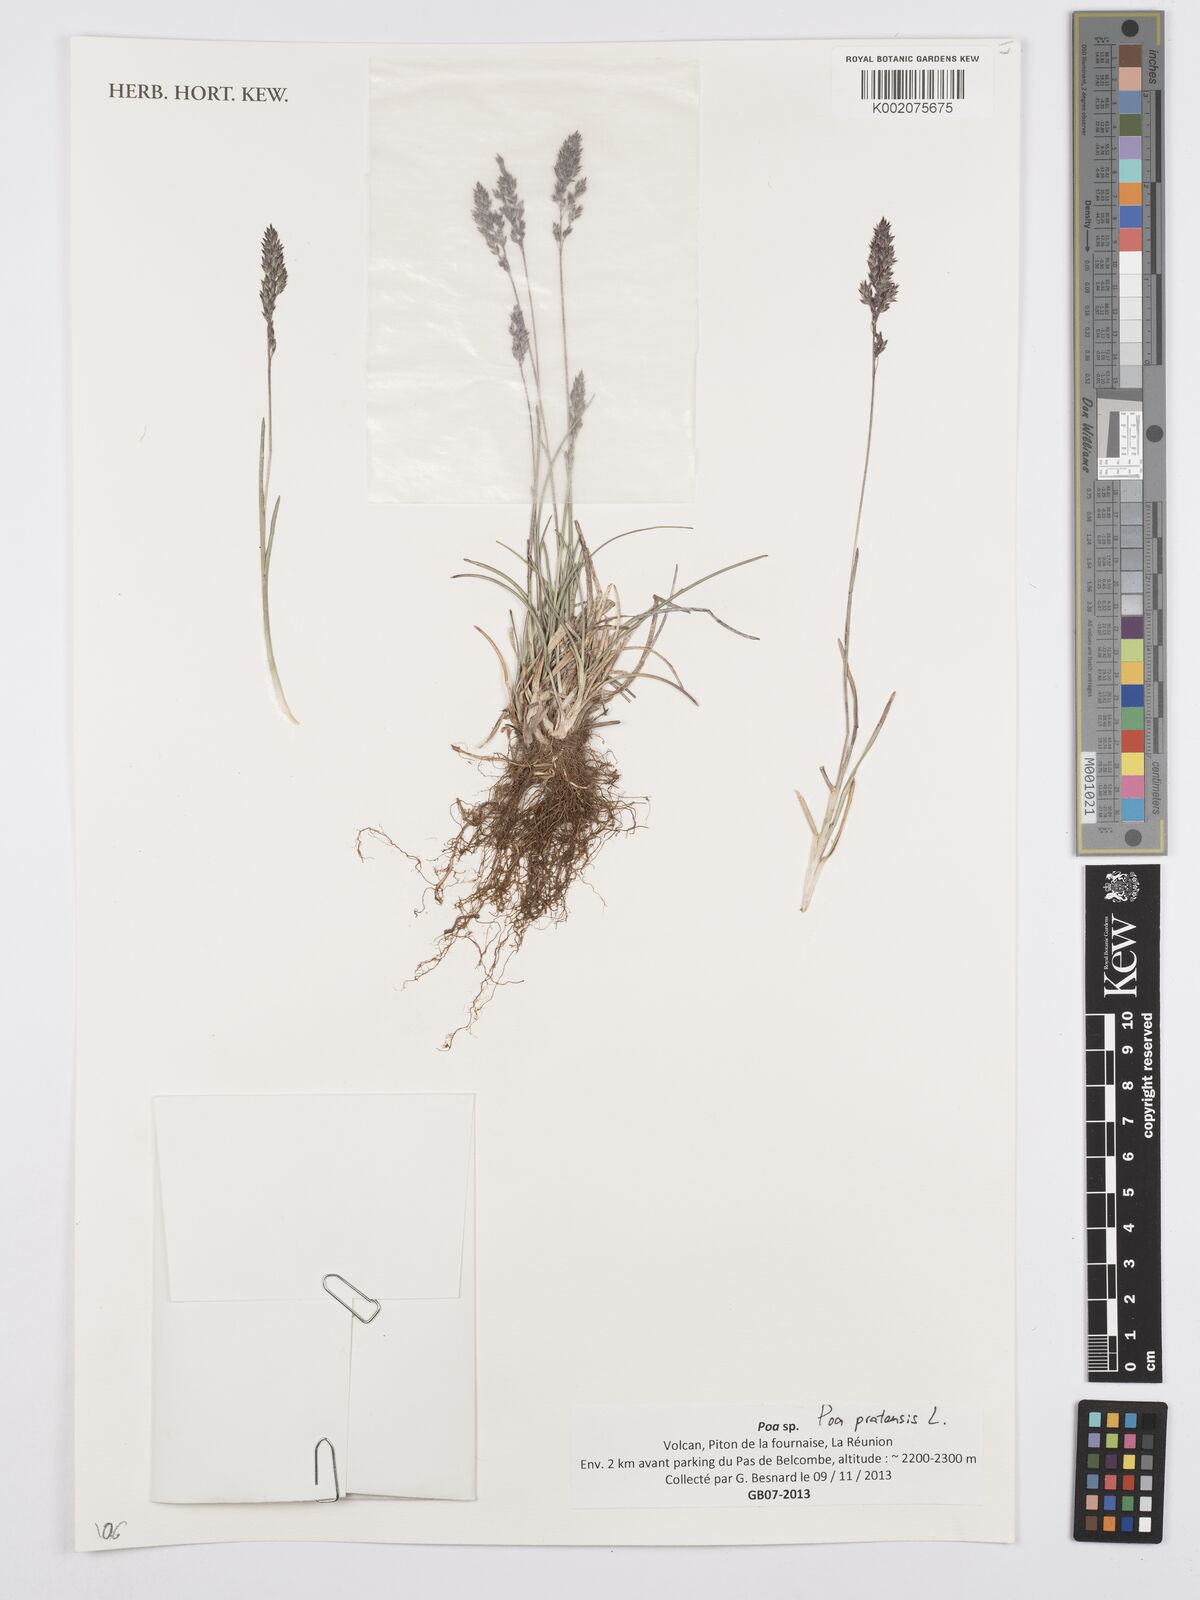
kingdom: Plantae
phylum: Tracheophyta
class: Liliopsida
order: Poales
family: Poaceae
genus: Poa
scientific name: Poa pratensis
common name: Kentucky bluegrass
